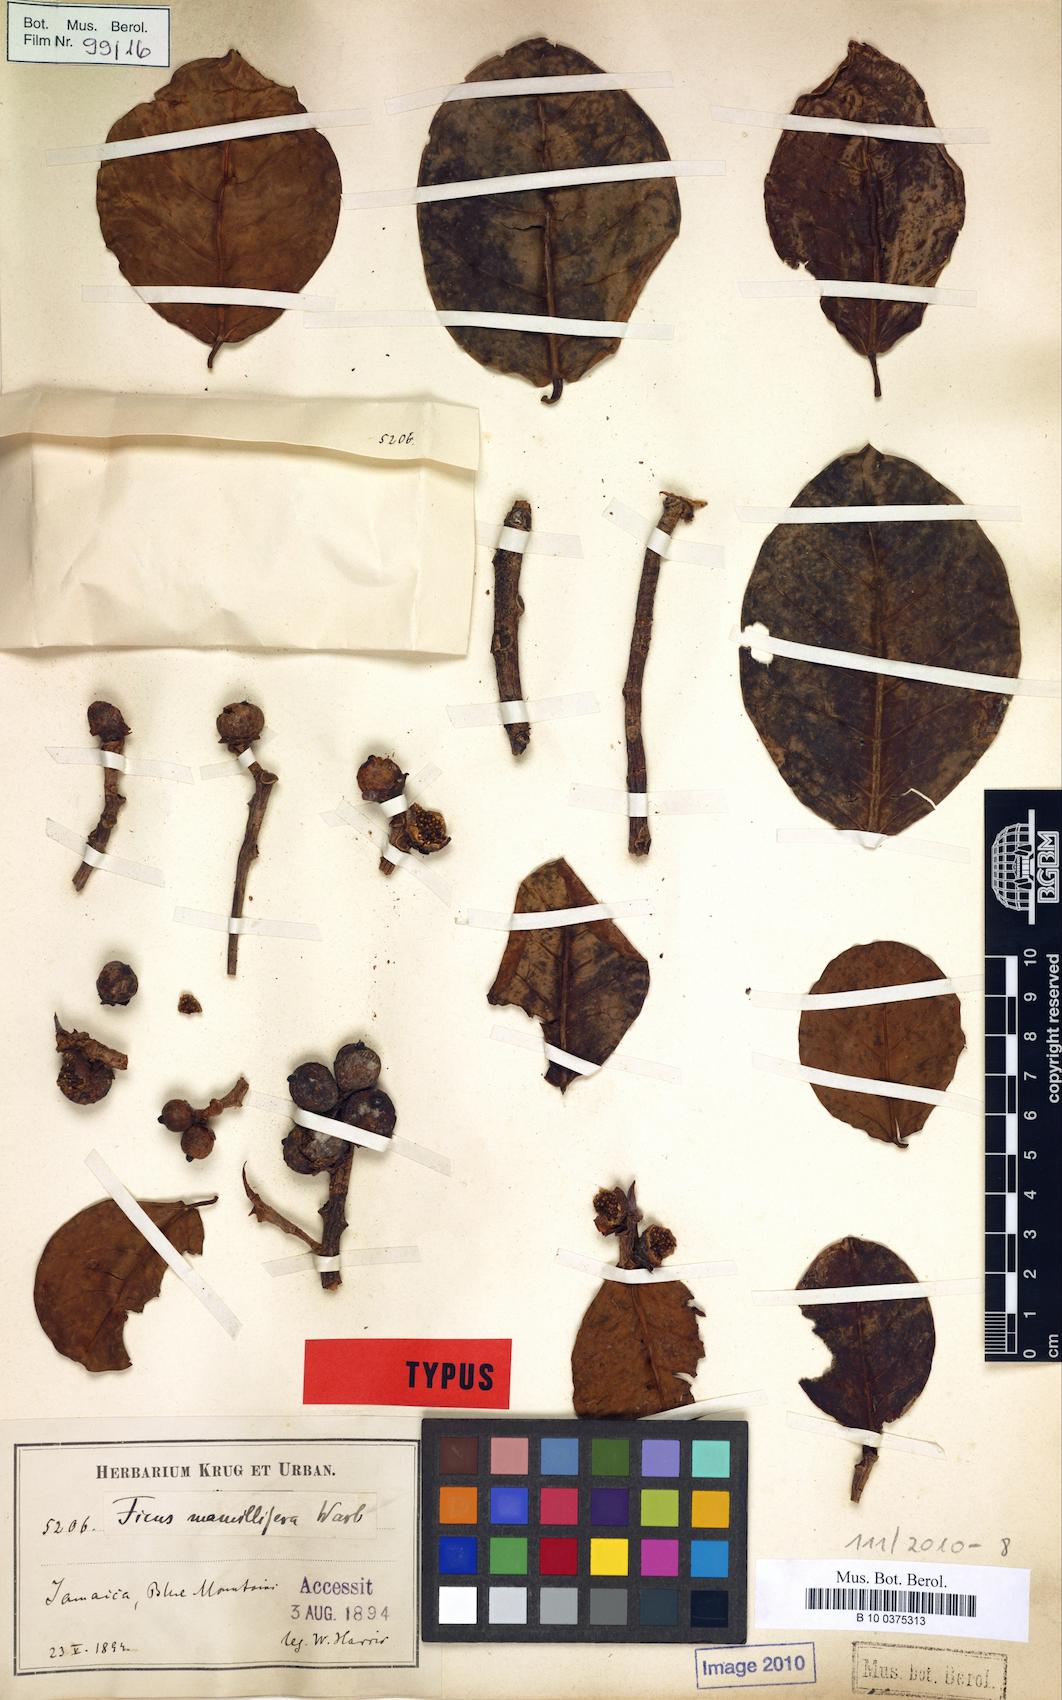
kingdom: Plantae
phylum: Tracheophyta
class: Magnoliopsida
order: Rosales
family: Moraceae
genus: Ficus
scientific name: Ficus crassinervia
